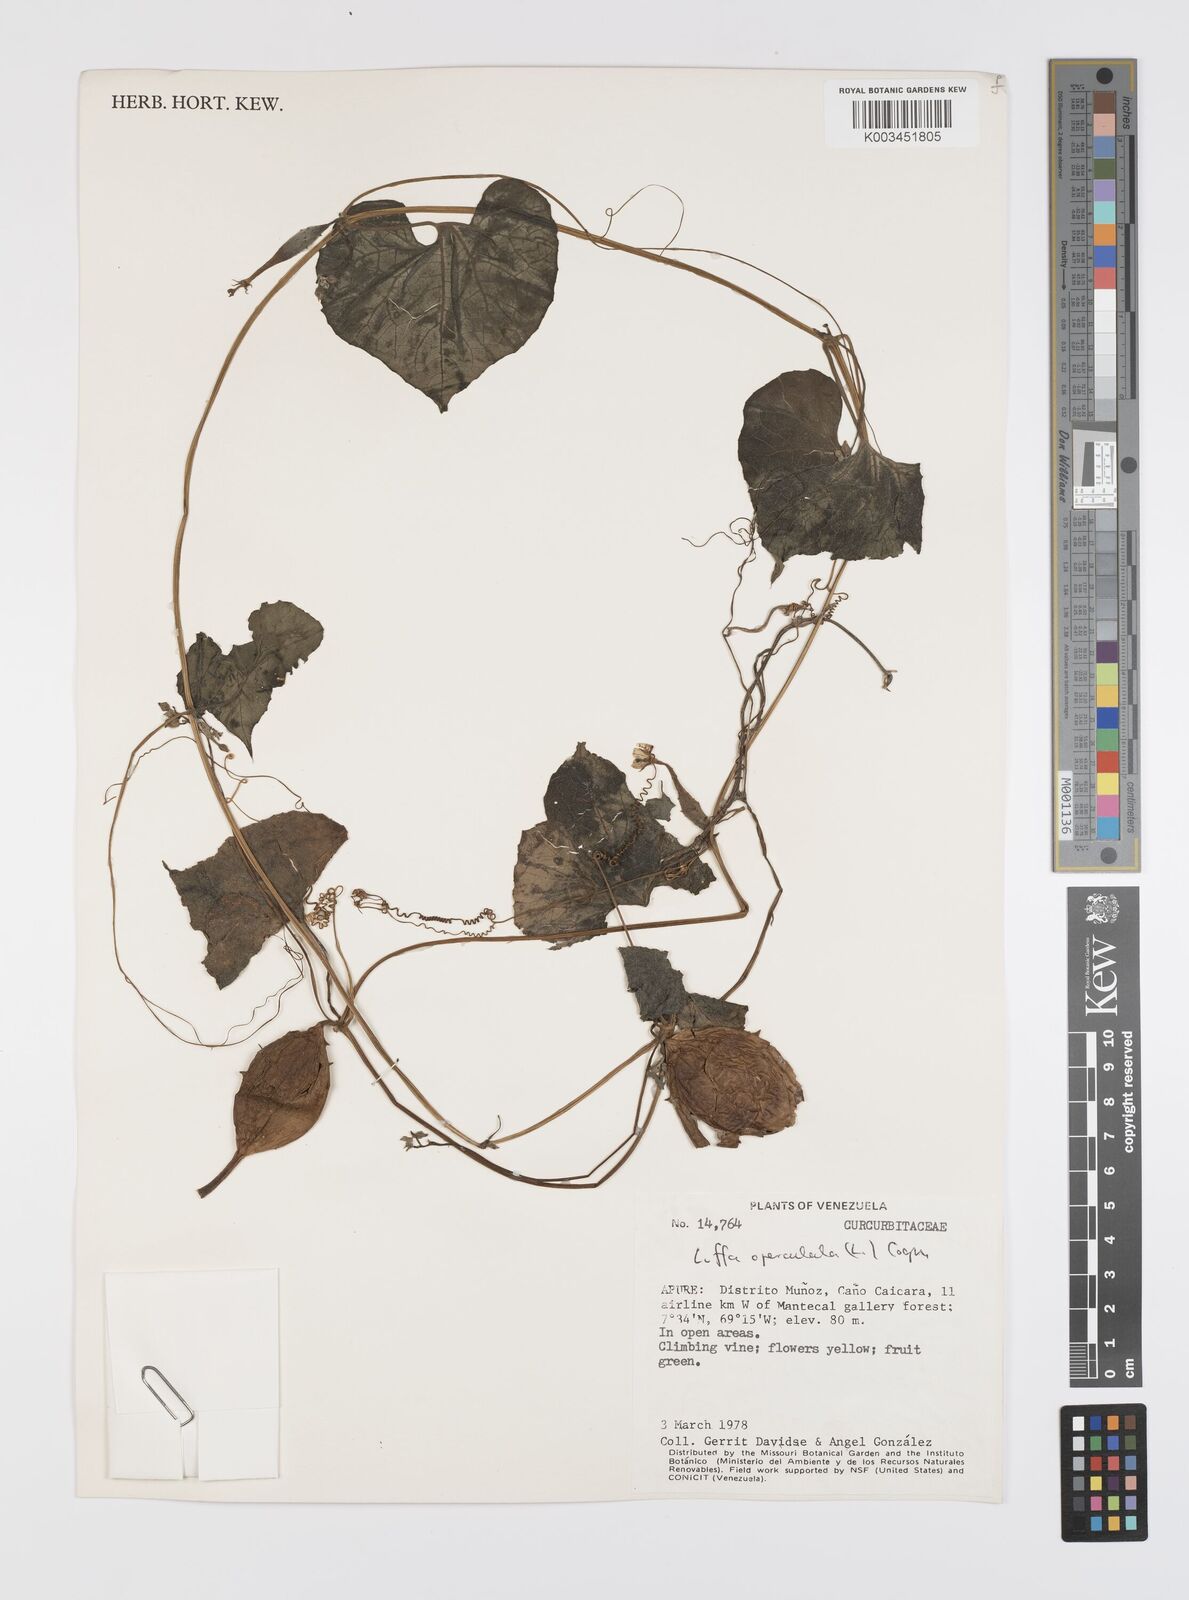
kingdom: Plantae
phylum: Tracheophyta
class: Magnoliopsida
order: Cucurbitales
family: Cucurbitaceae
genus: Luffa
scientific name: Luffa operculata
